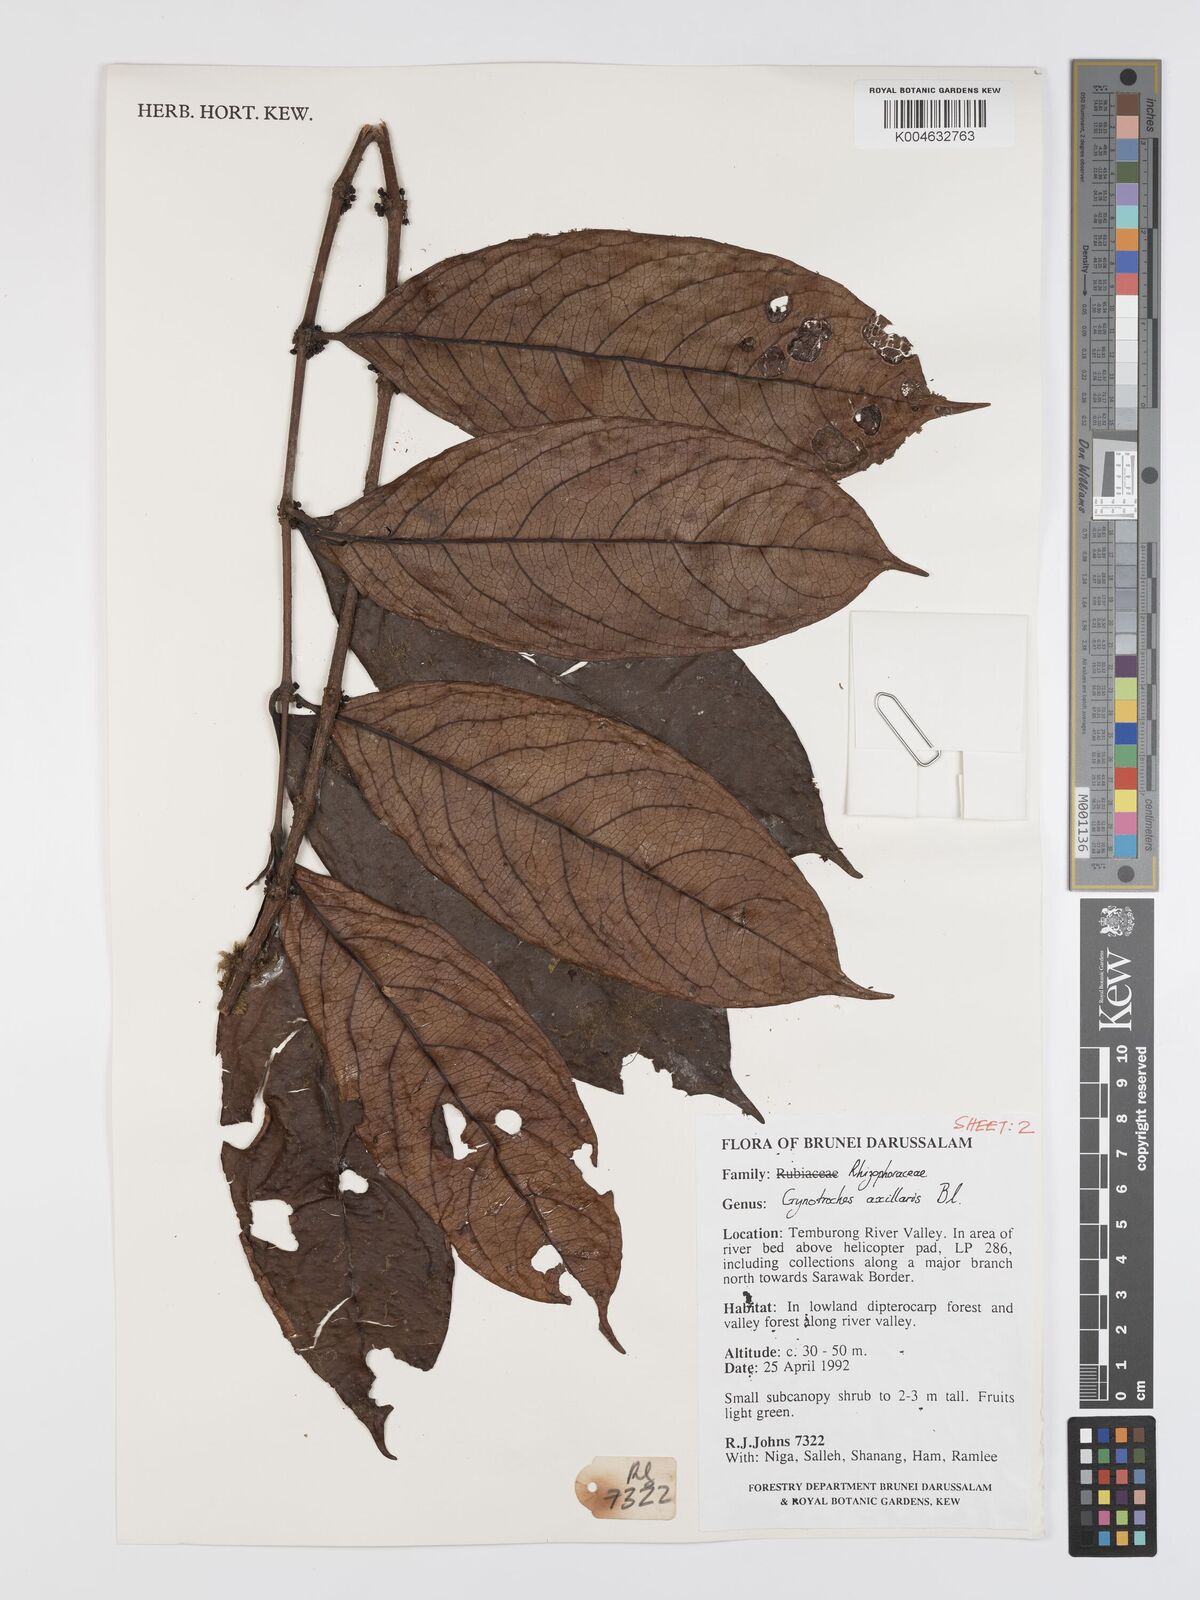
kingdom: Plantae
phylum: Tracheophyta
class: Magnoliopsida
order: Malpighiales
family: Rhizophoraceae
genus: Gynotroches
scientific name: Gynotroches axillaris
